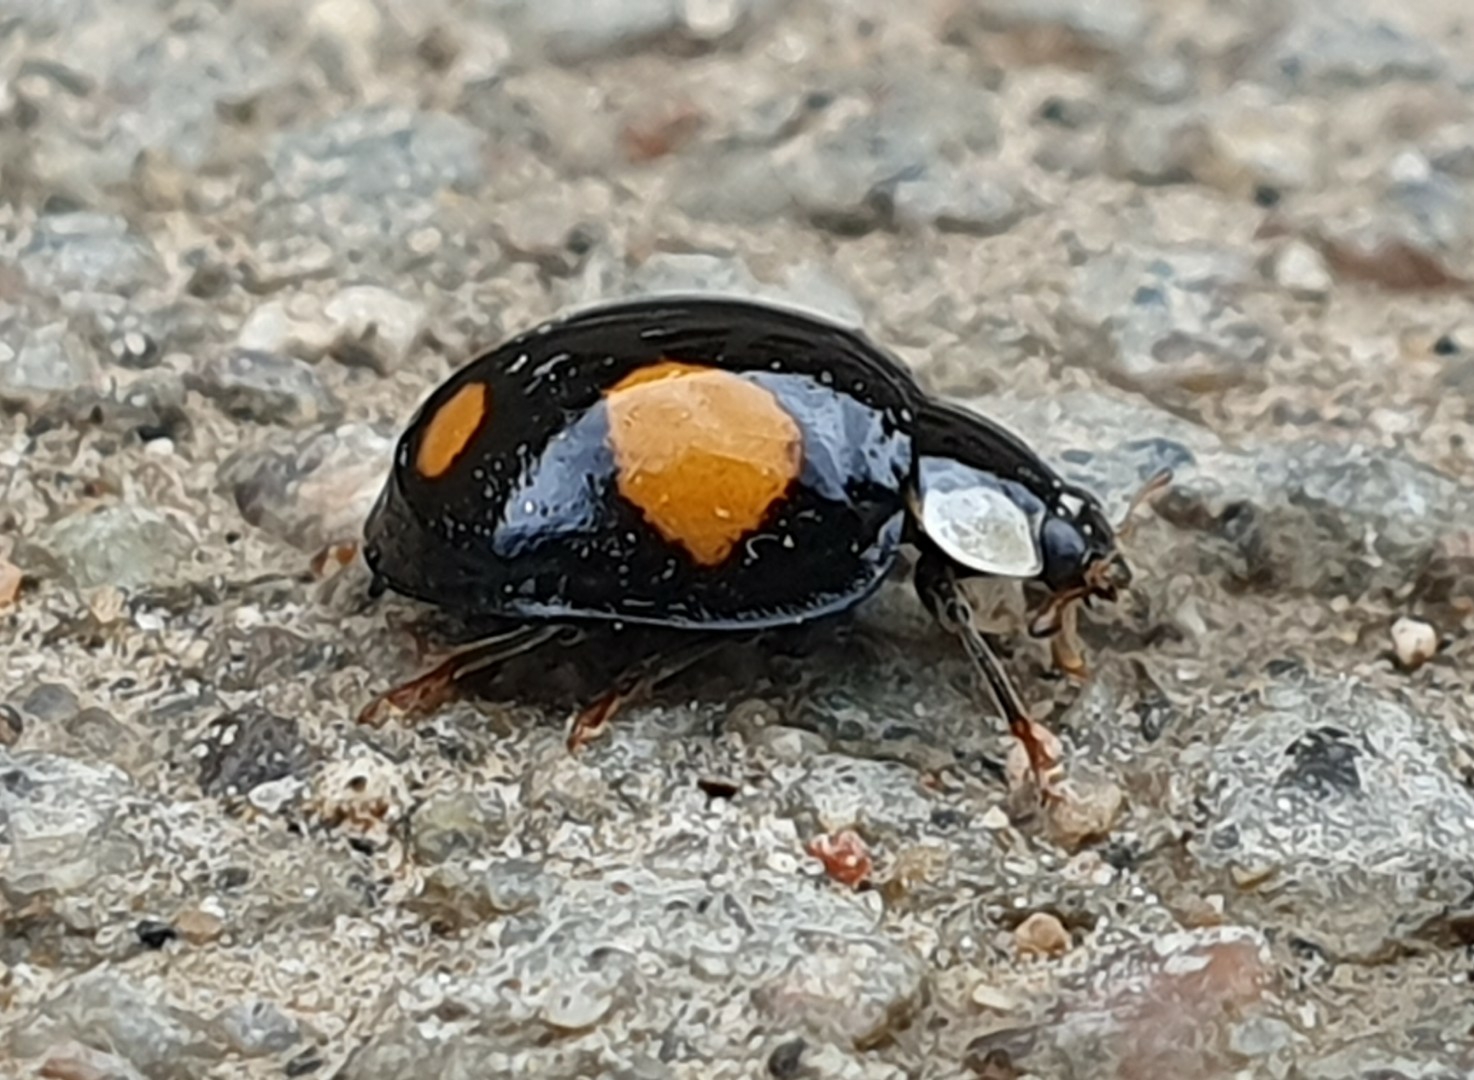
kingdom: Animalia
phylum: Arthropoda
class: Insecta
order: Coleoptera
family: Coccinellidae
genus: Harmonia
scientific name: Harmonia axyridis
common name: Harlekinmariehøne
